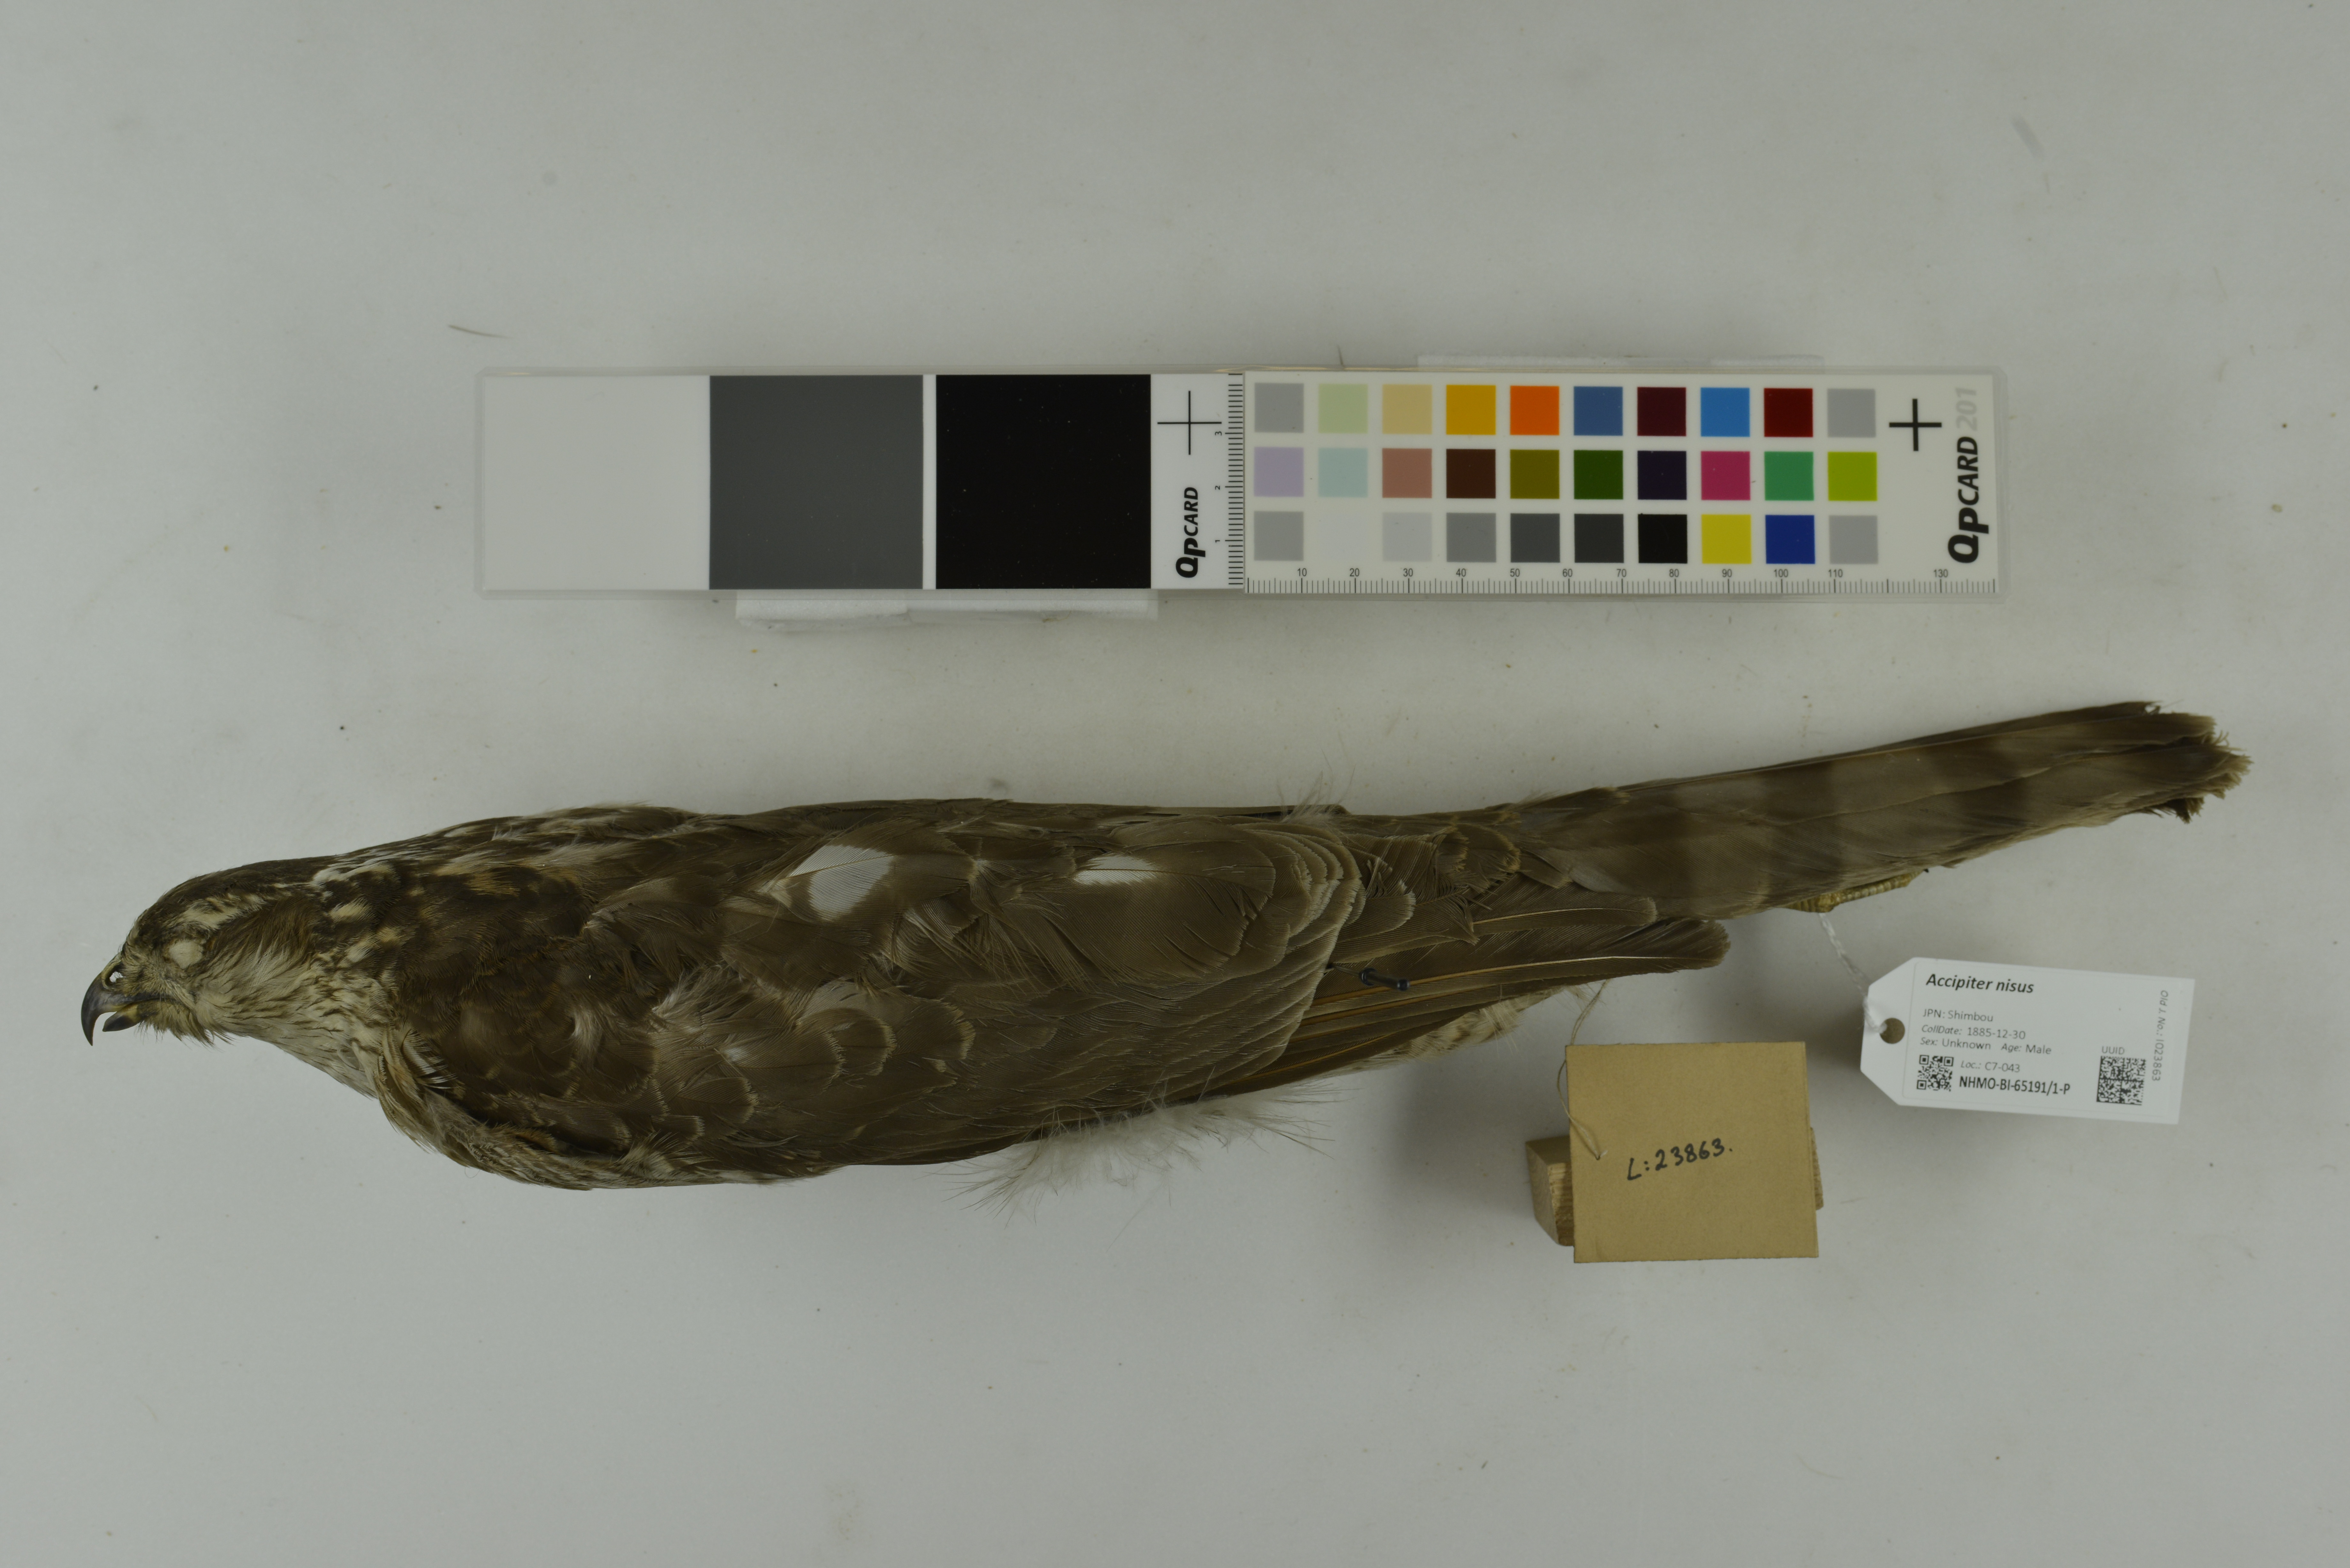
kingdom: Animalia
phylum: Chordata
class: Aves
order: Accipitriformes
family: Accipitridae
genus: Accipiter
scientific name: Accipiter nisus
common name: Eurasian sparrowhawk
